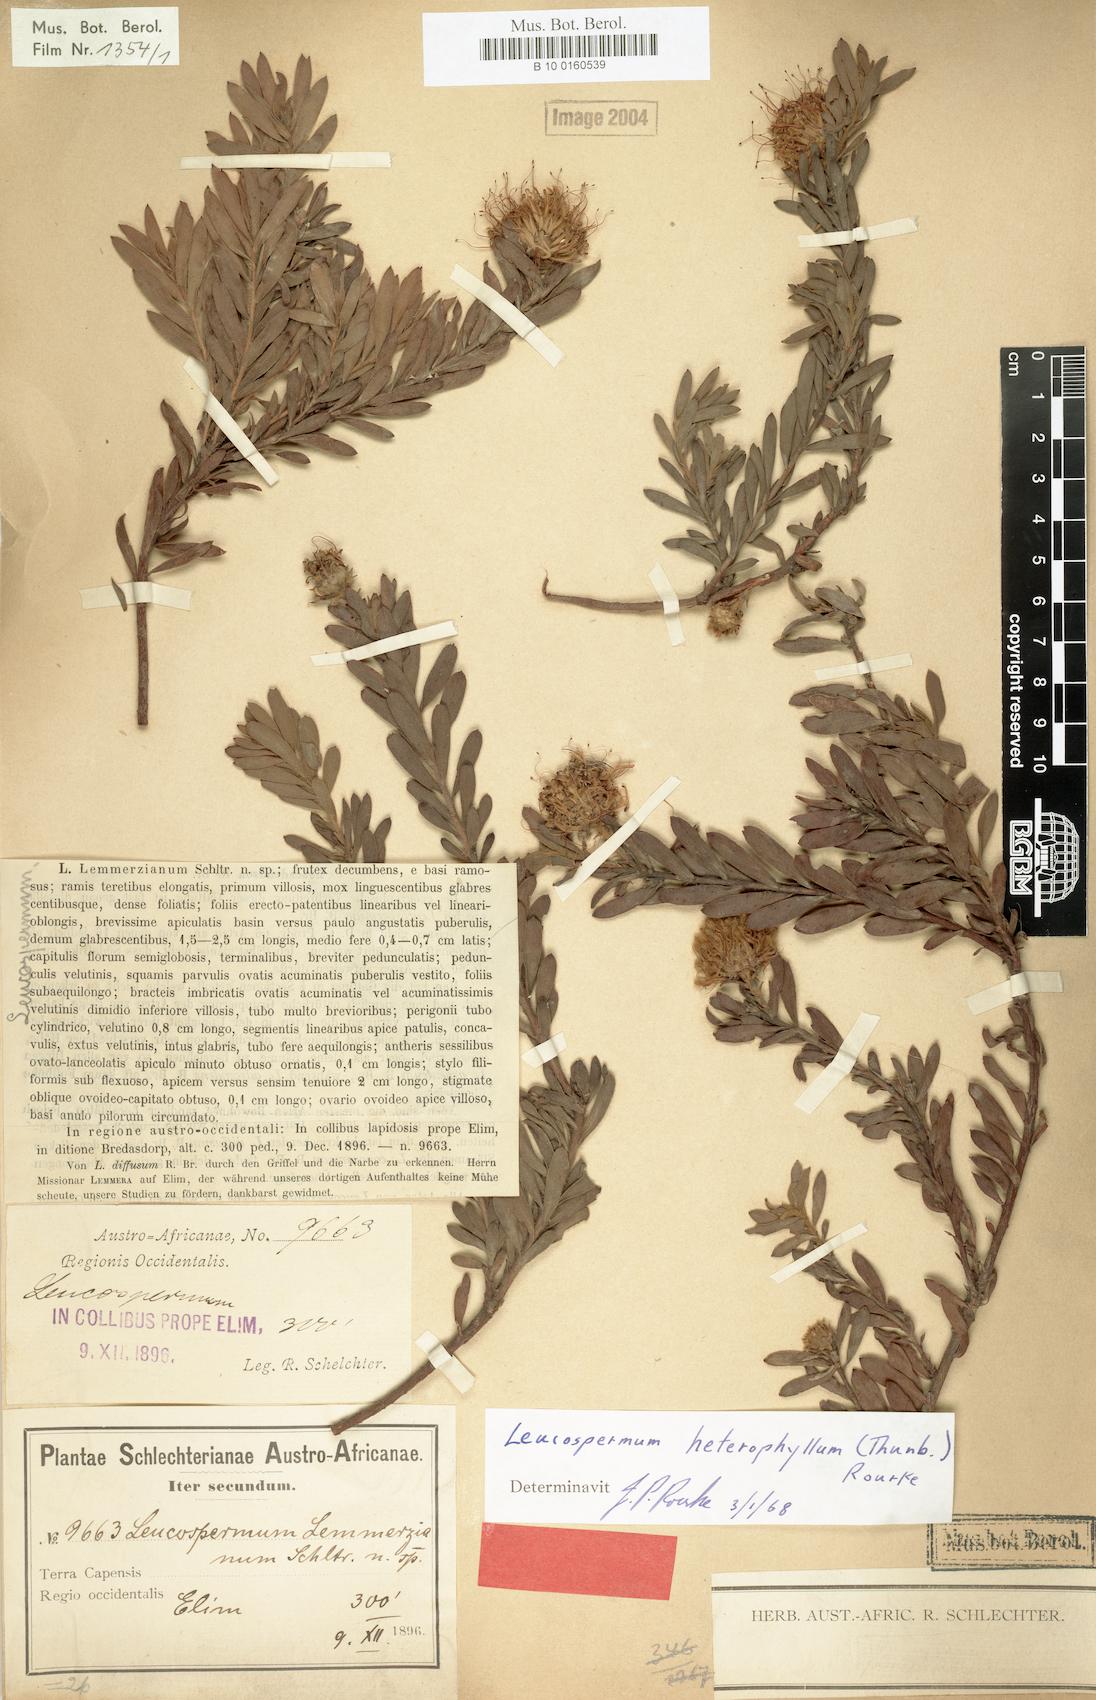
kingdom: Plantae
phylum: Tracheophyta
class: Magnoliopsida
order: Proteales
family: Proteaceae
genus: Leucospermum
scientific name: Leucospermum heterophyllum
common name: Trident pincushion
